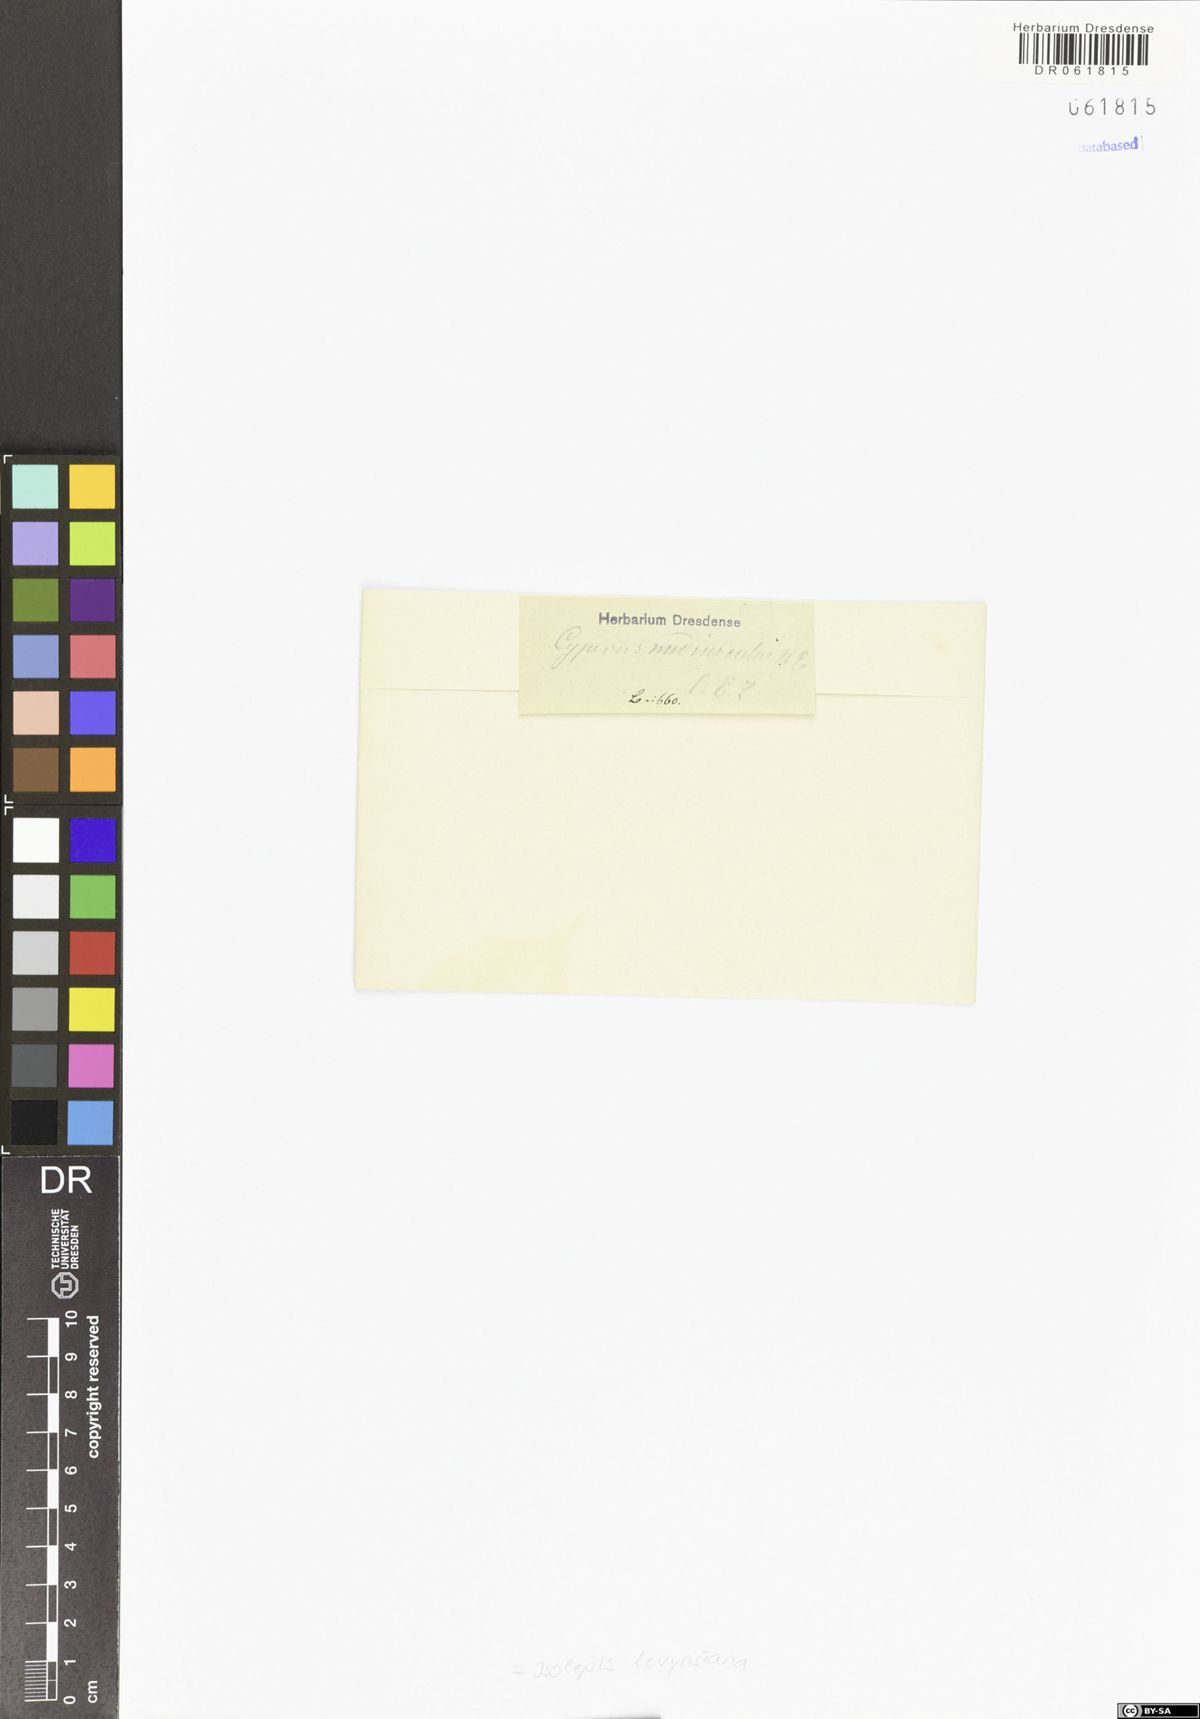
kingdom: Plantae
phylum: Tracheophyta
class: Liliopsida
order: Poales
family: Cyperaceae
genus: Isolepis
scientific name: Isolepis levynsiana
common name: Sedge
